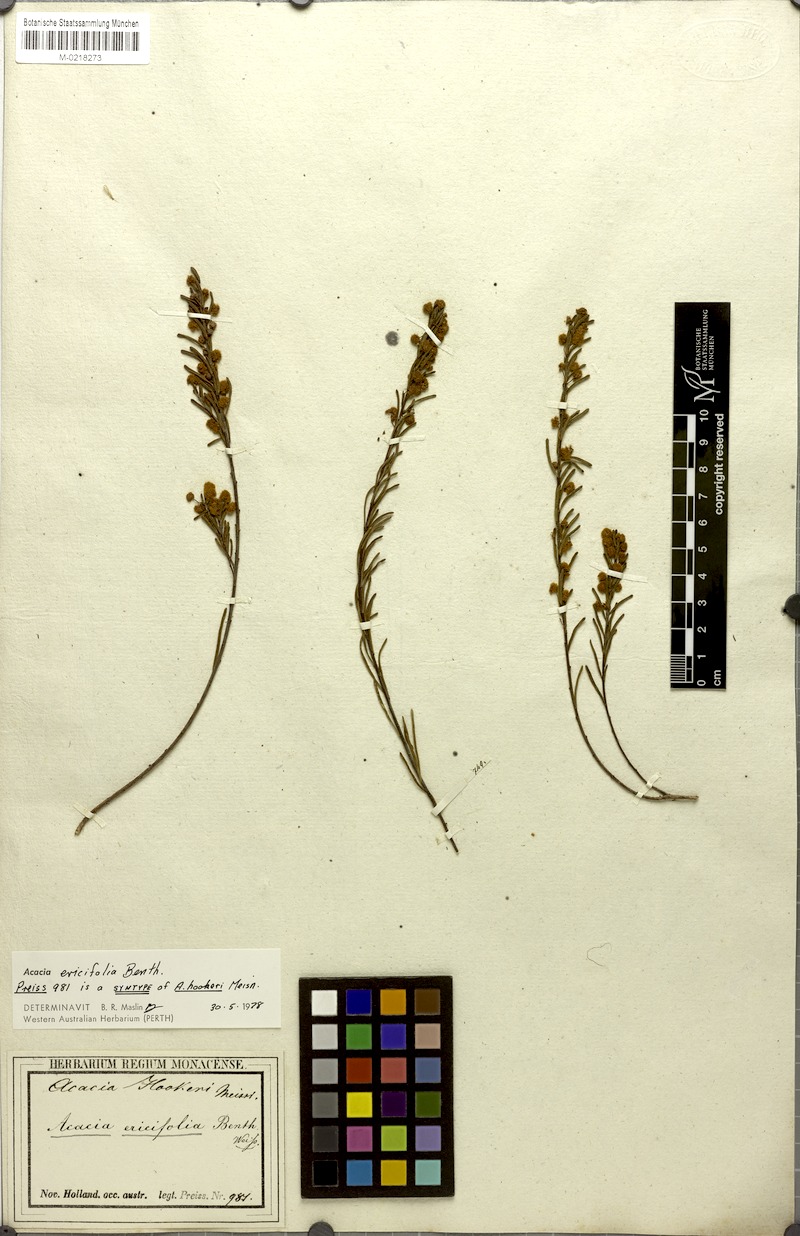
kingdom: Plantae
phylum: Tracheophyta
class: Magnoliopsida
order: Fabales
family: Fabaceae
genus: Acacia
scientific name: Acacia
